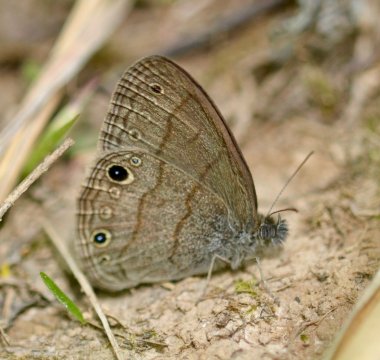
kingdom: Animalia
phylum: Arthropoda
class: Insecta
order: Lepidoptera
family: Nymphalidae
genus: Hermeuptychia
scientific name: Hermeuptychia hermes
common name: Carolina Satyr
